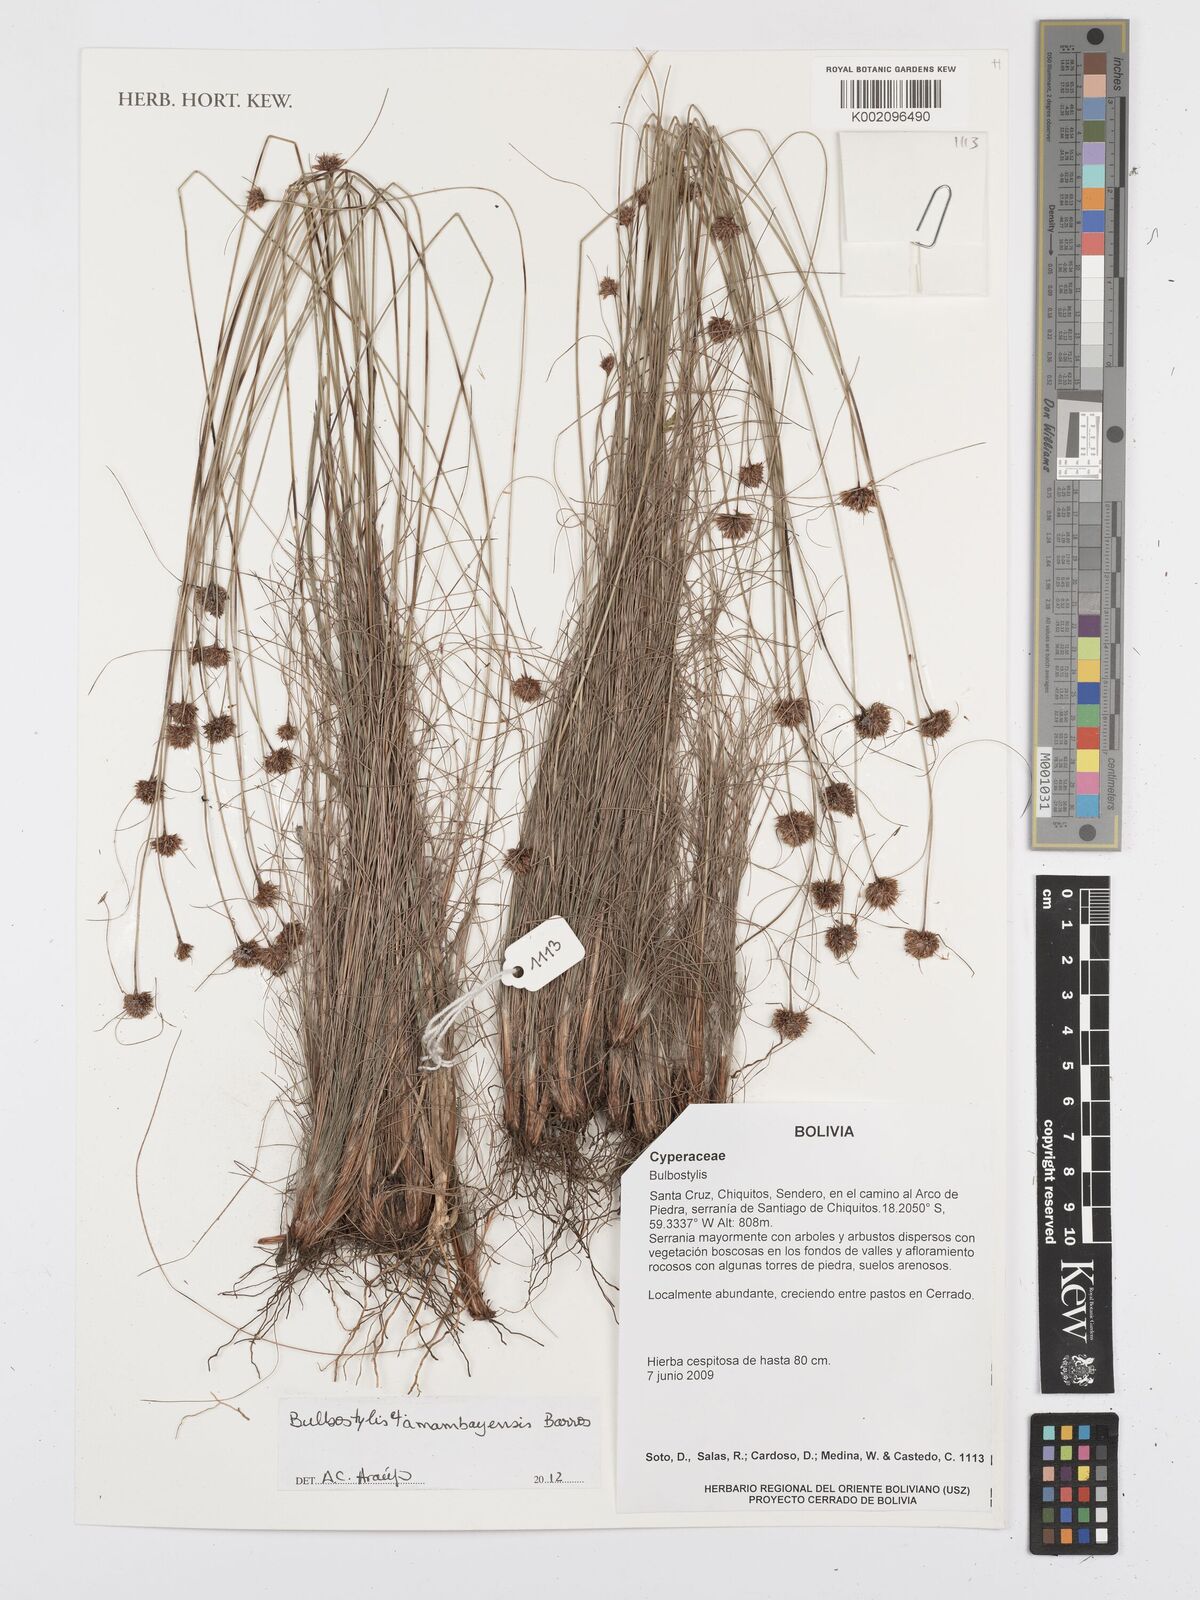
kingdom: Plantae
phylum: Tracheophyta
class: Liliopsida
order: Poales
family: Cyperaceae
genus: Bulbostylis
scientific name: Bulbostylis amambayensis
